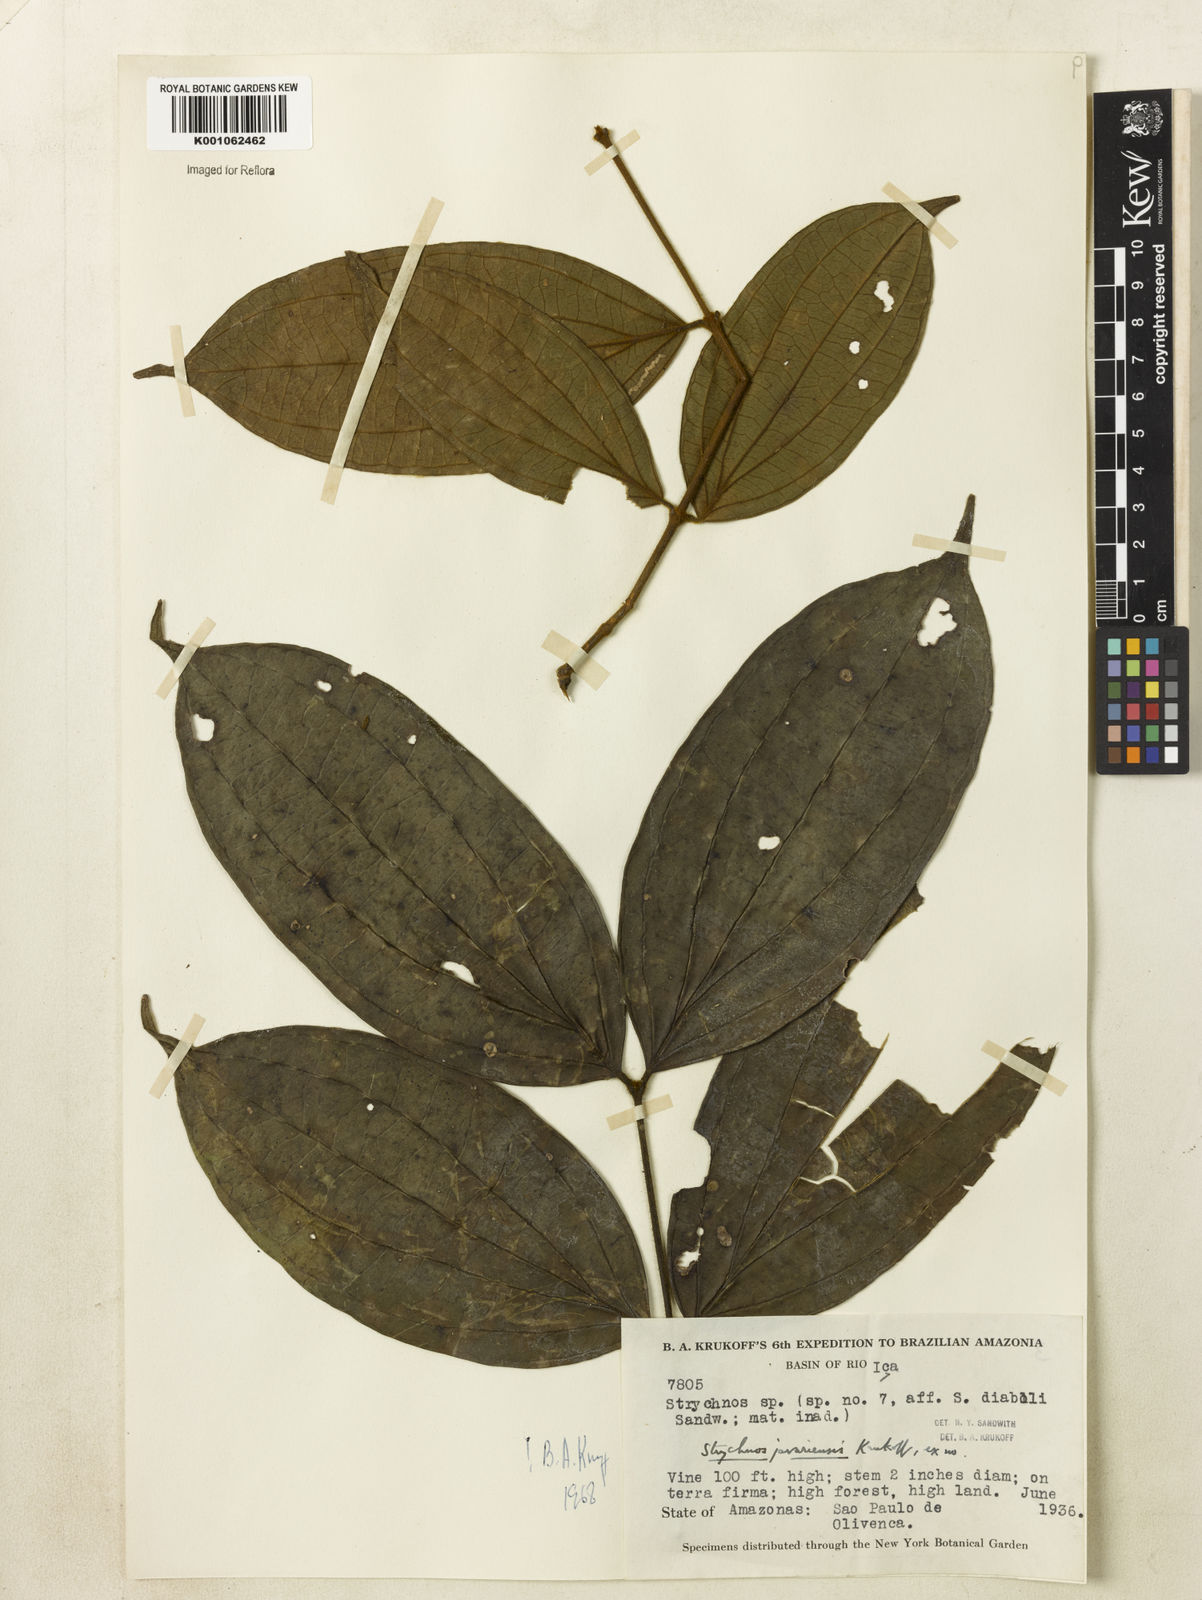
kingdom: Plantae
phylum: Tracheophyta
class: Magnoliopsida
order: Gentianales
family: Loganiaceae
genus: Strychnos
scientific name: Strychnos javariensis
